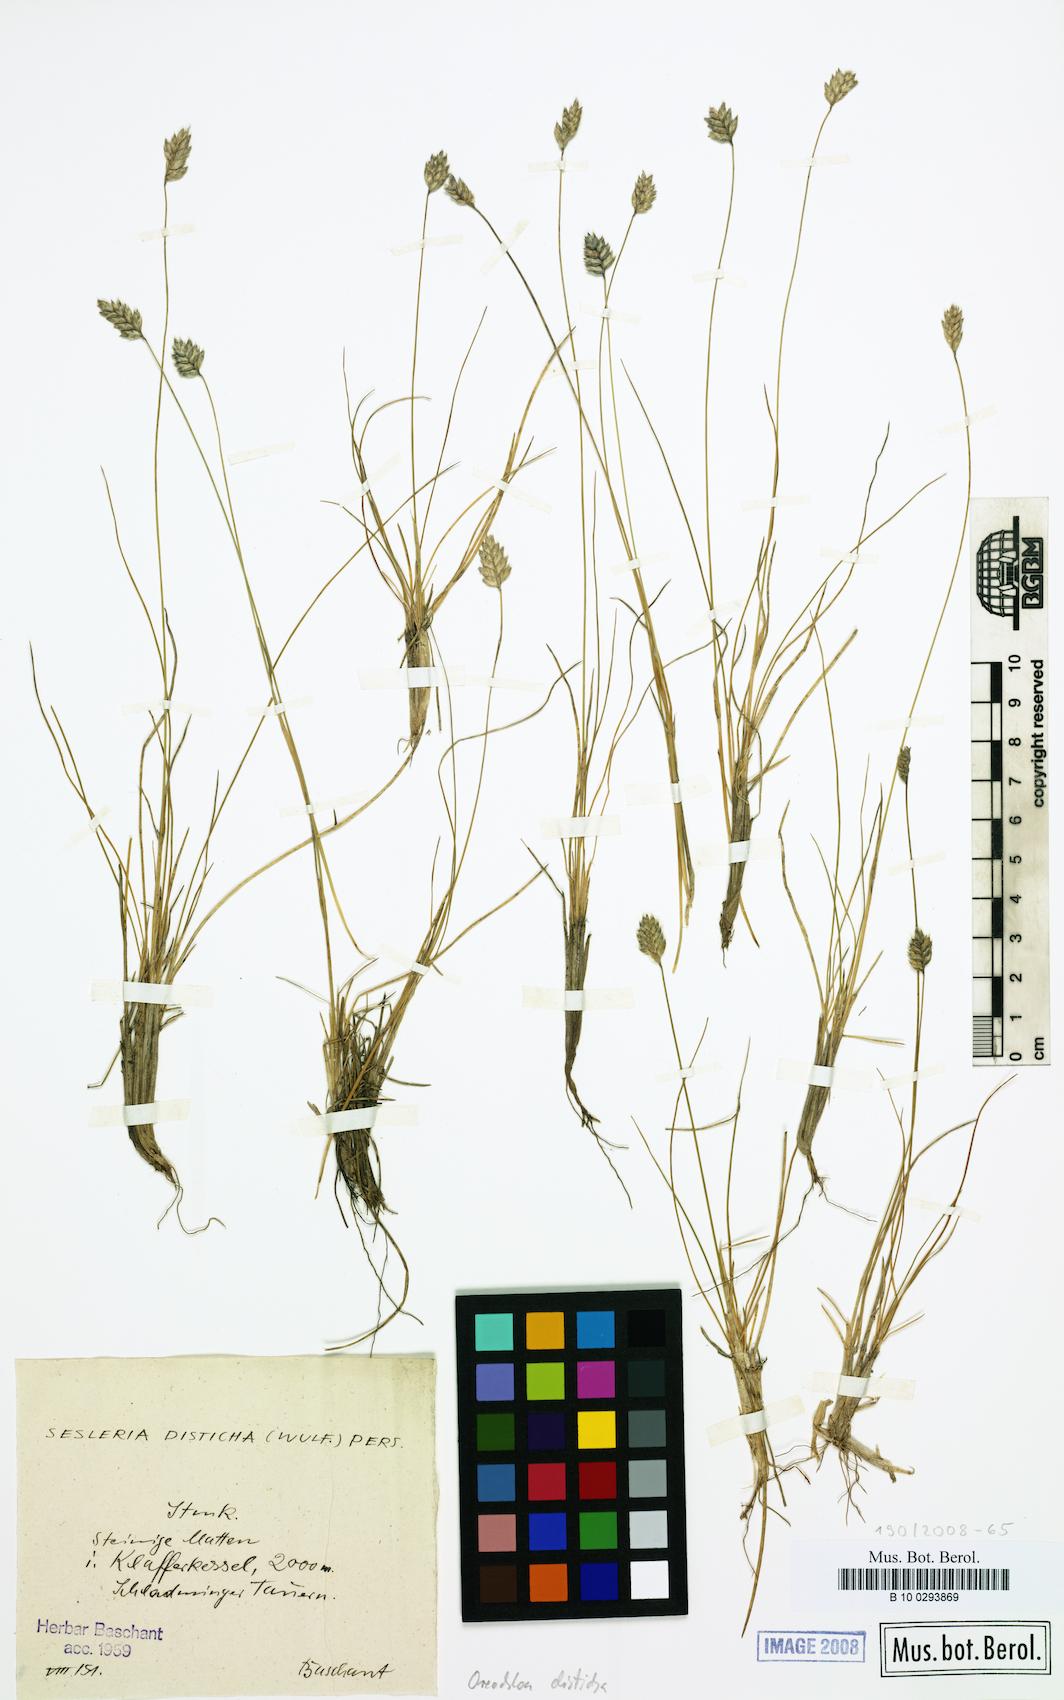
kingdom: Plantae
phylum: Tracheophyta
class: Liliopsida
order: Poales
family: Poaceae
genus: Oreochloa
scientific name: Oreochloa disticha
